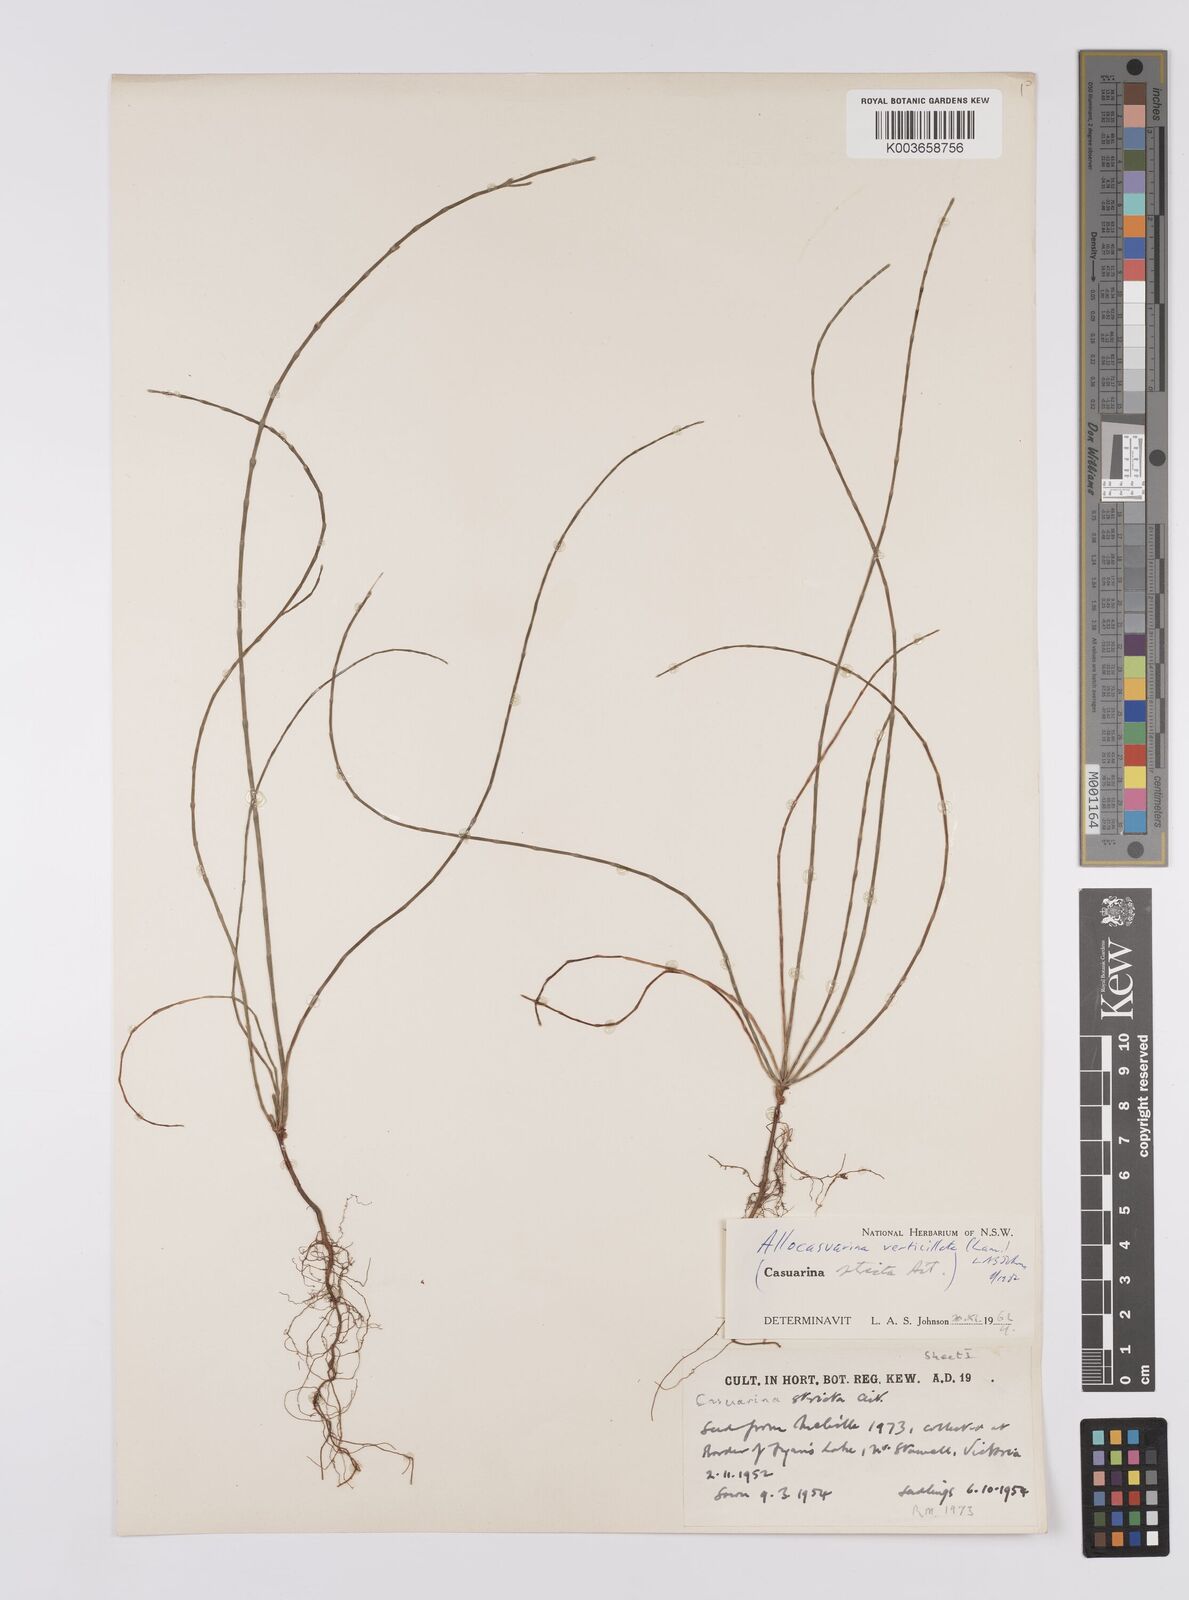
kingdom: Plantae
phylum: Tracheophyta
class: Magnoliopsida
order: Fagales
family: Casuarinaceae
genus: Allocasuarina
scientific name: Allocasuarina verticillata
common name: Drooping she-oak
